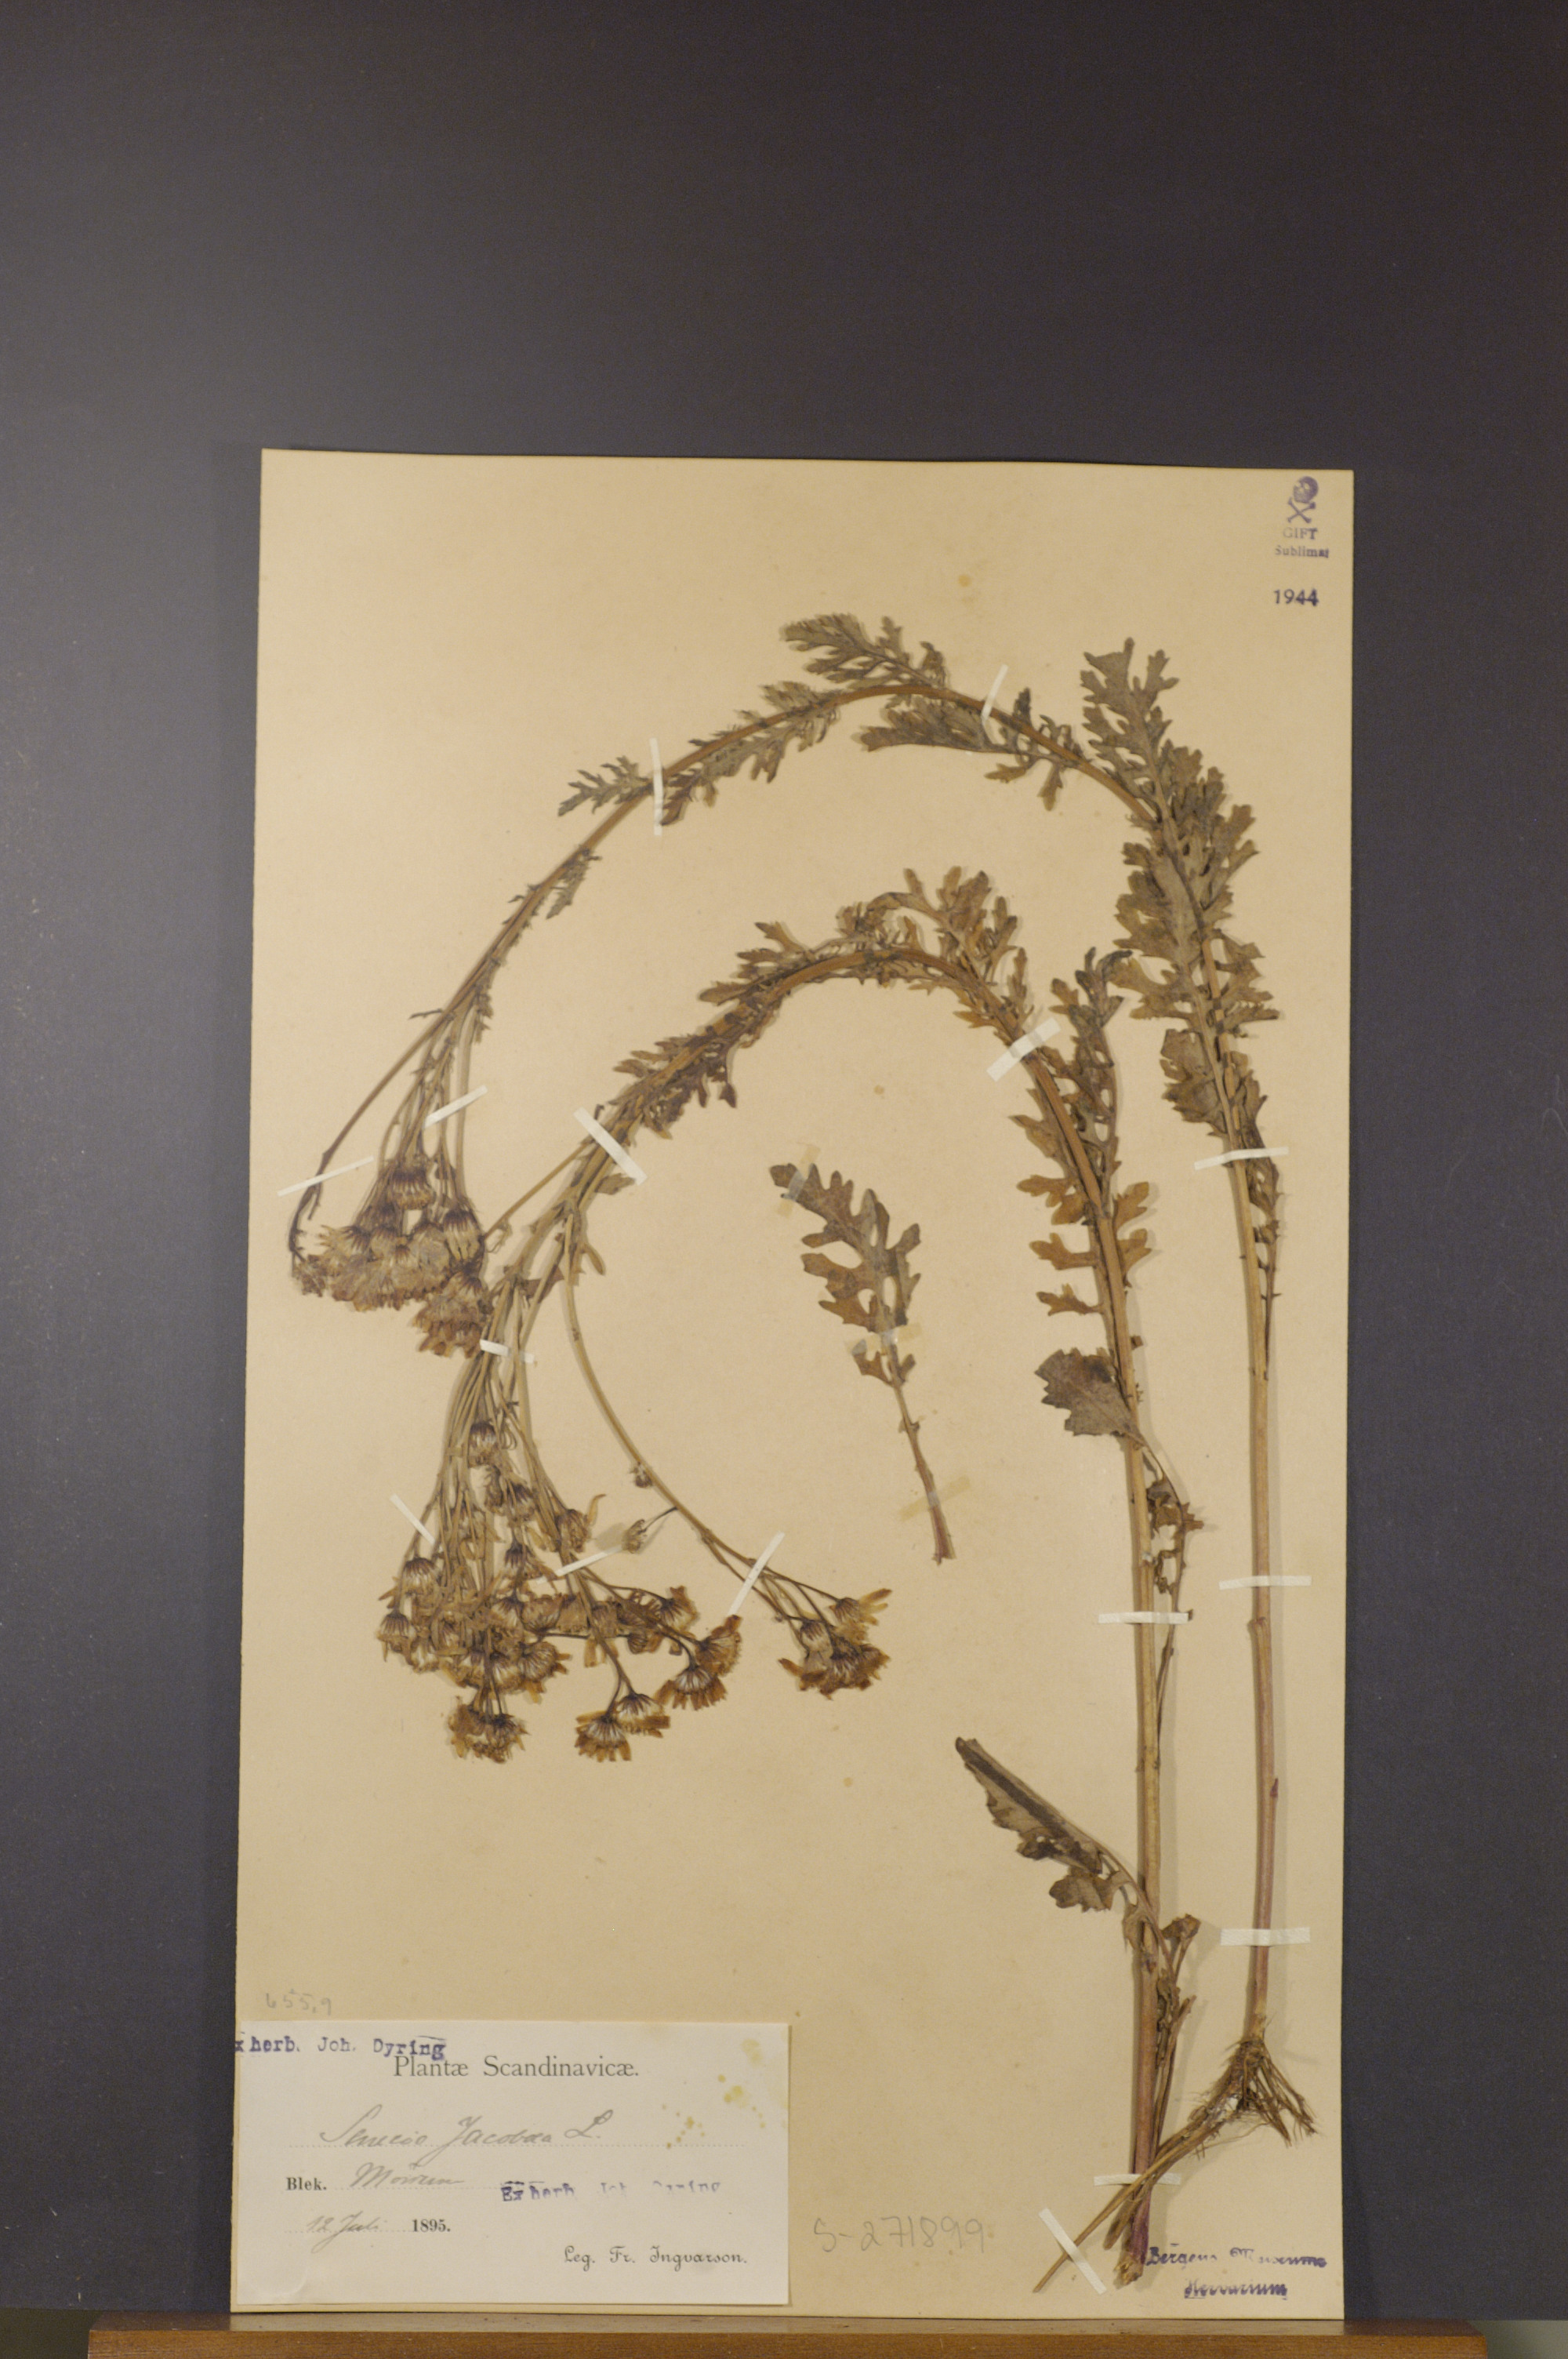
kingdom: Plantae
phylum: Tracheophyta
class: Magnoliopsida
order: Asterales
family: Asteraceae
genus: Jacobaea
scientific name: Jacobaea vulgaris
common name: Stinking willie
